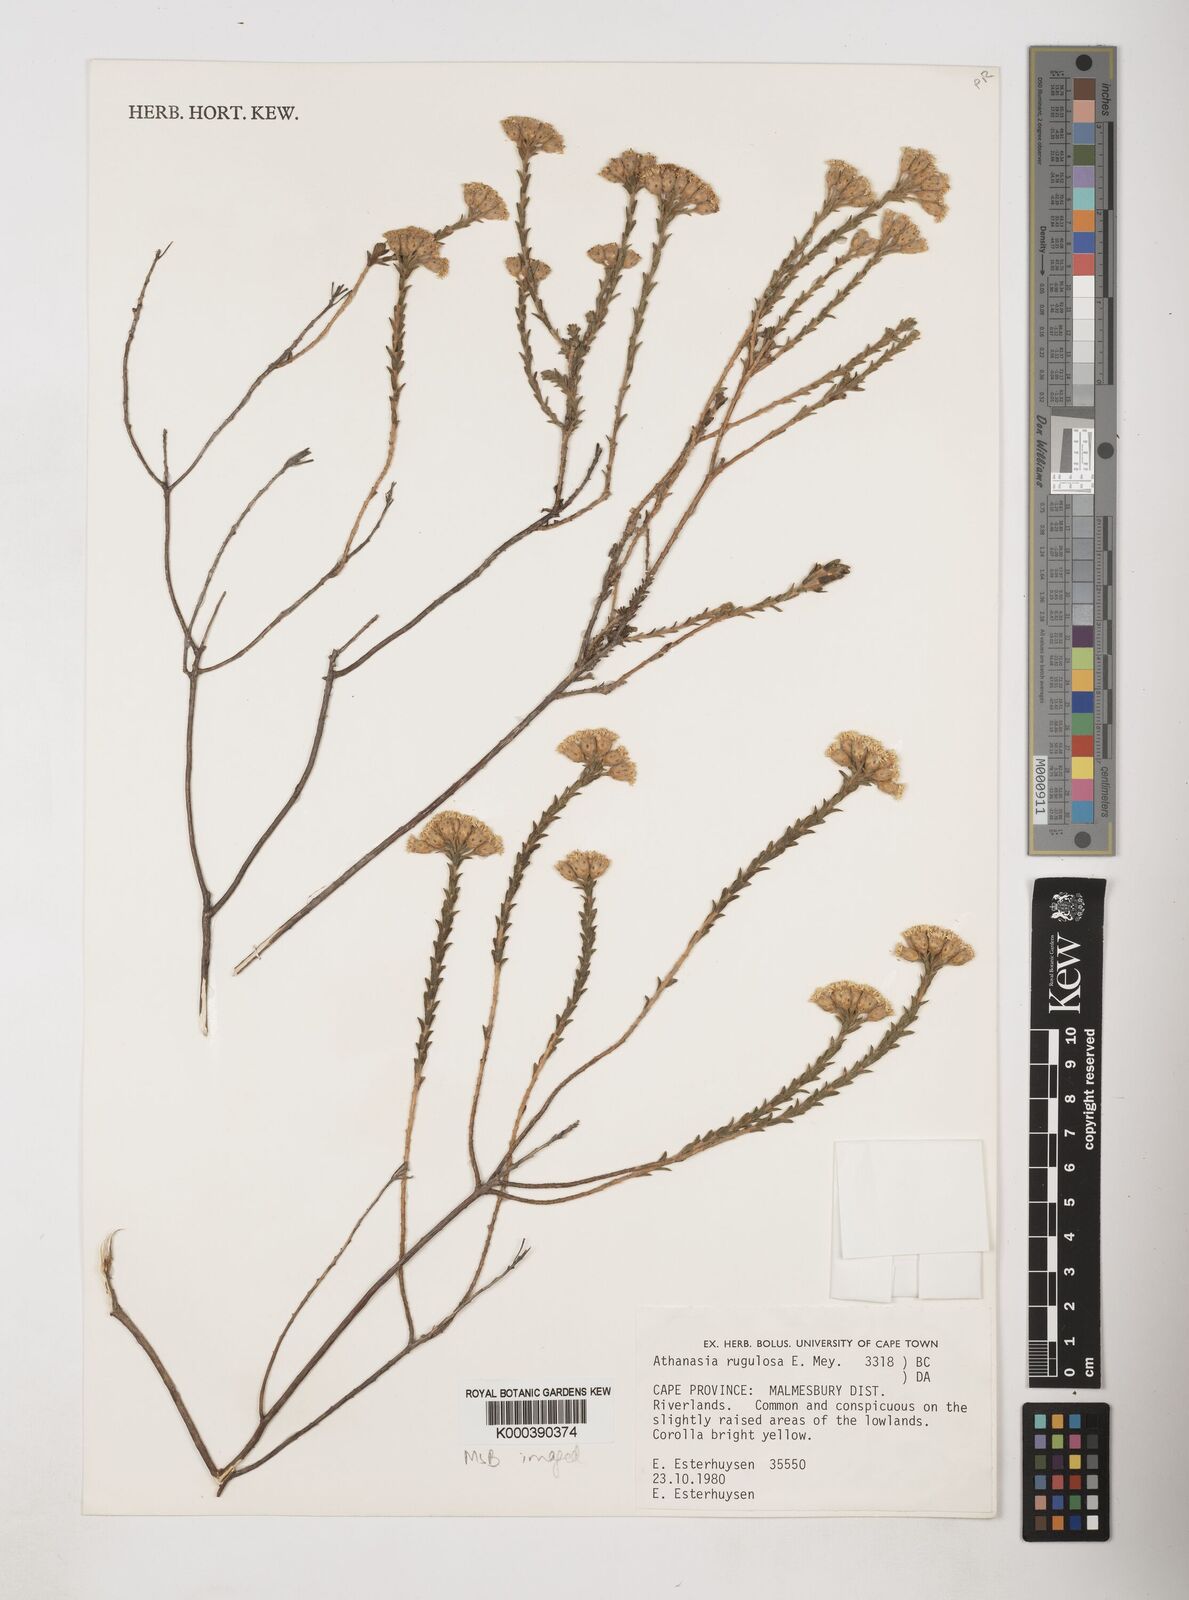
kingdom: Plantae
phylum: Tracheophyta
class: Magnoliopsida
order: Asterales
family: Asteraceae
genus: Athanasia
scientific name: Athanasia rugulosa
